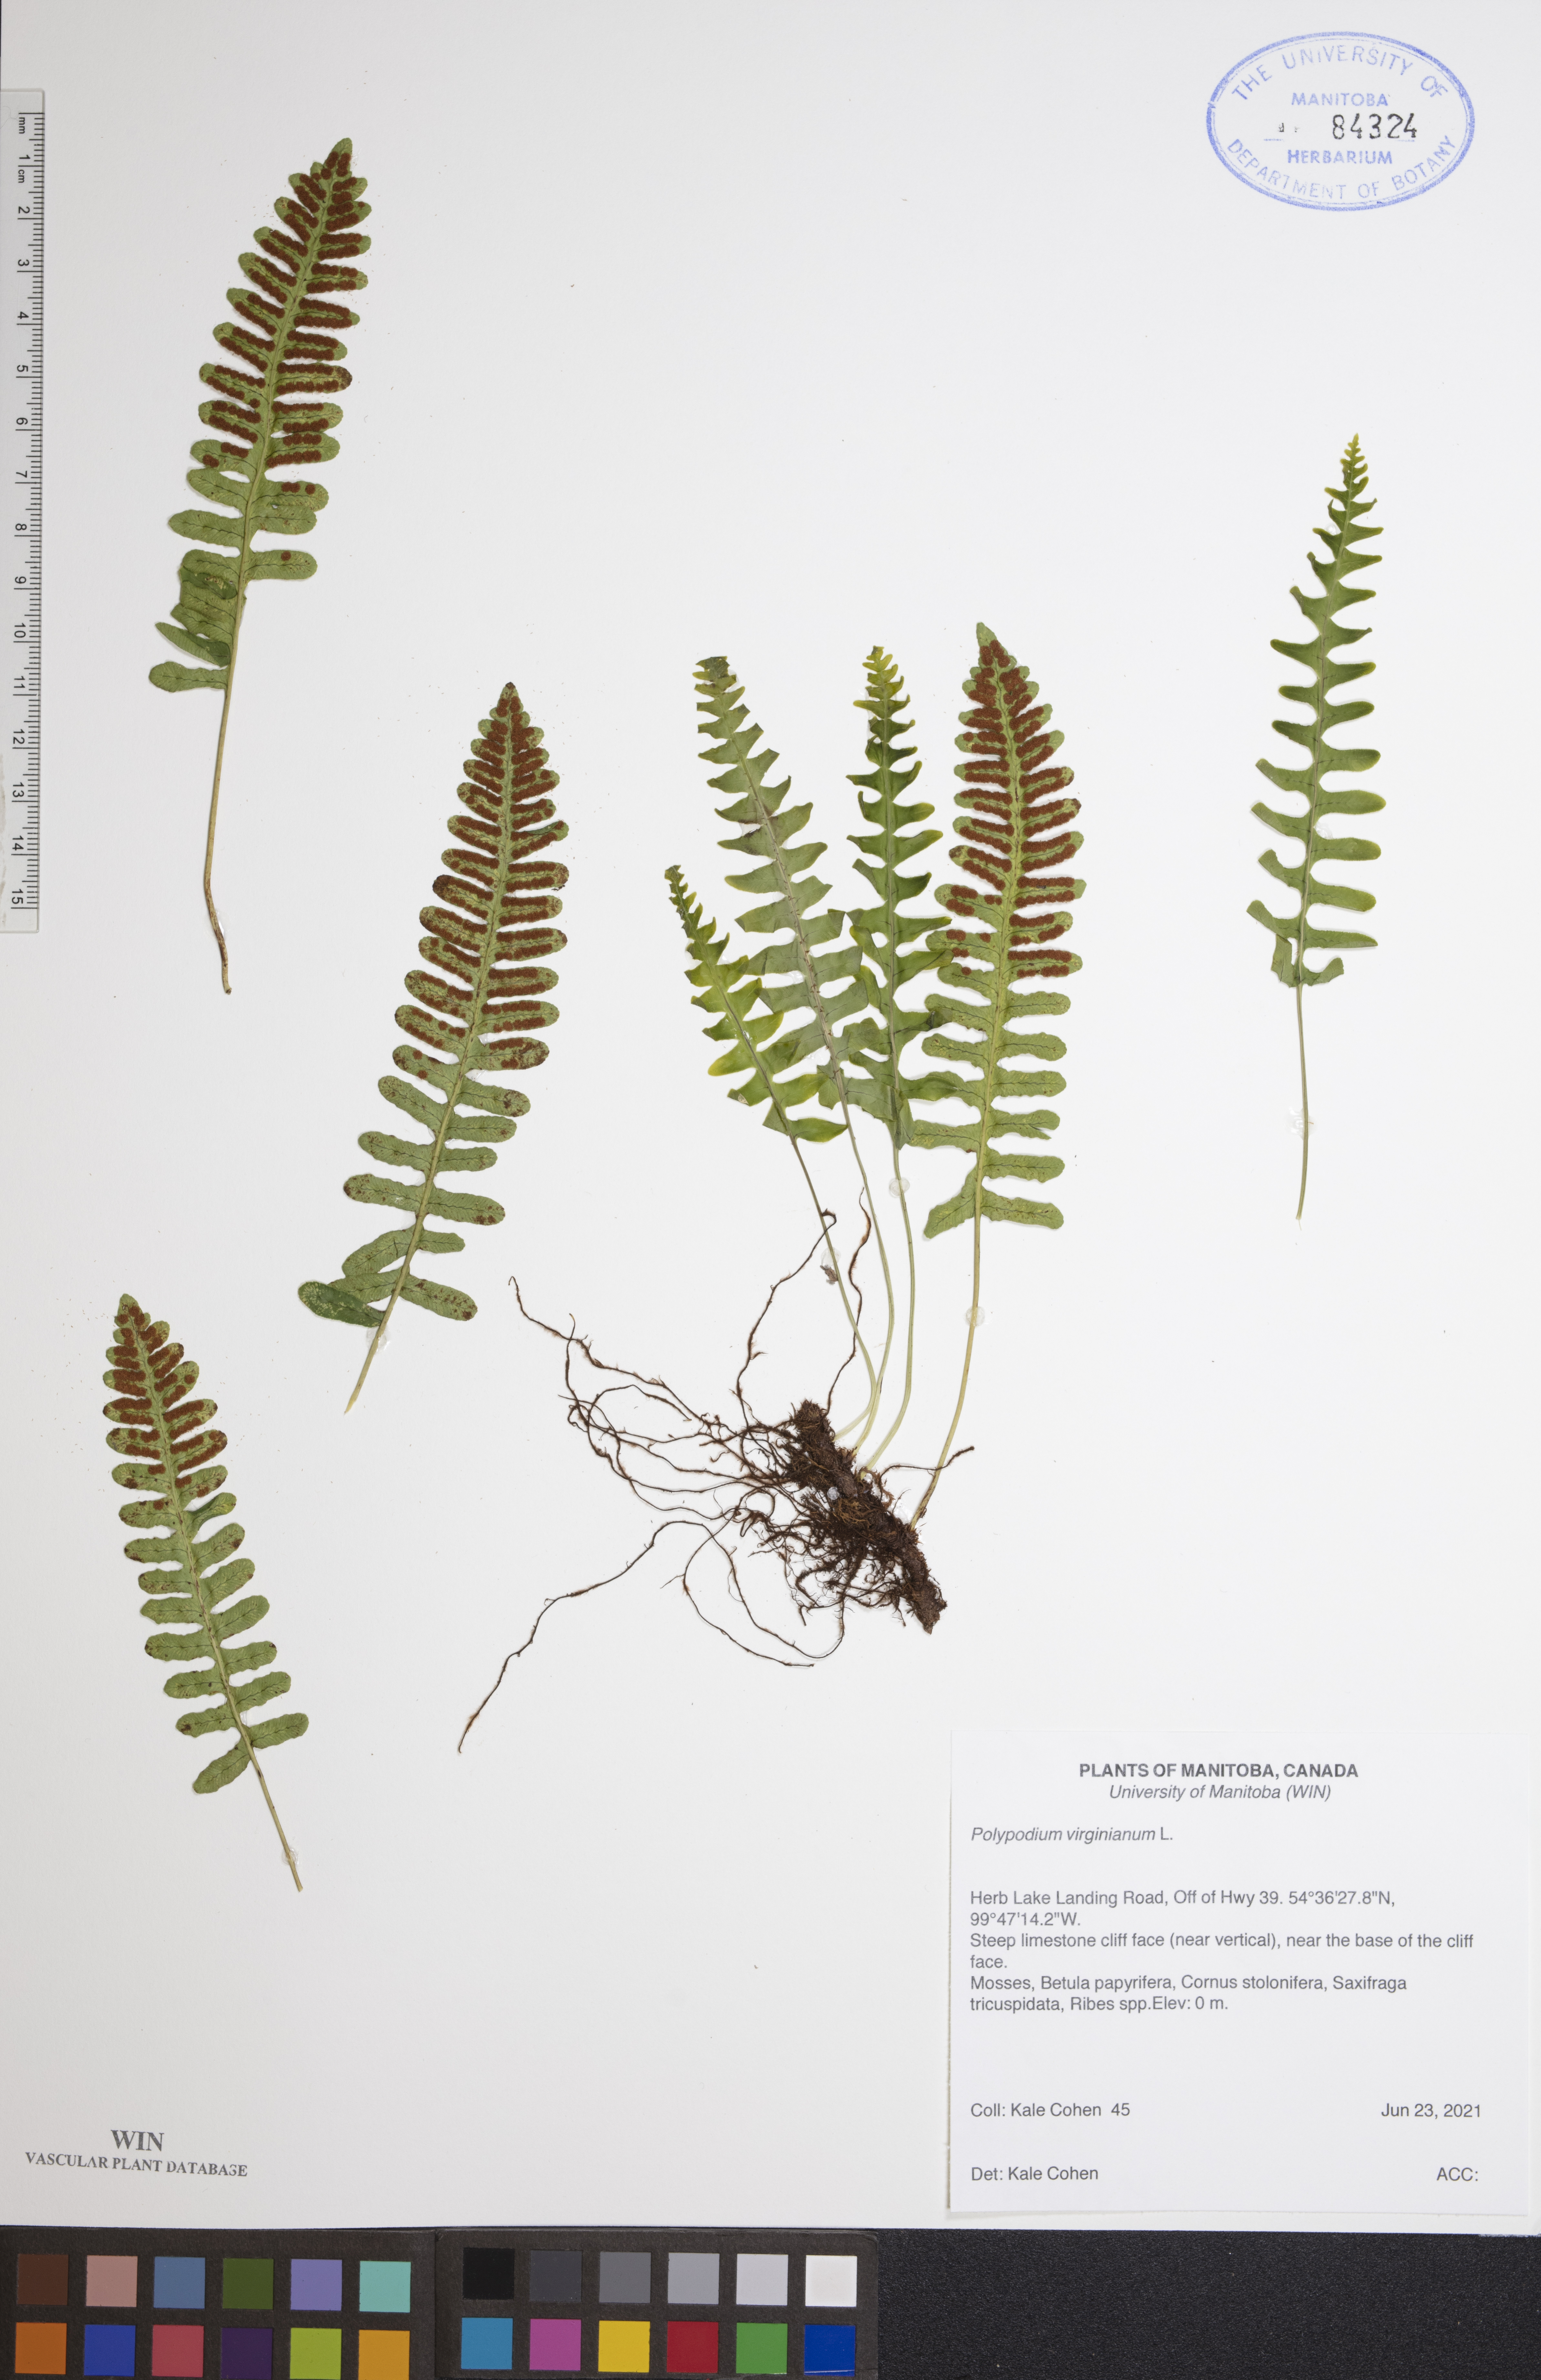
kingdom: Plantae
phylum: Tracheophyta
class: Polypodiopsida
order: Polypodiales
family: Polypodiaceae
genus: Polypodium
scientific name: Polypodium virginianum
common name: American wall fern
